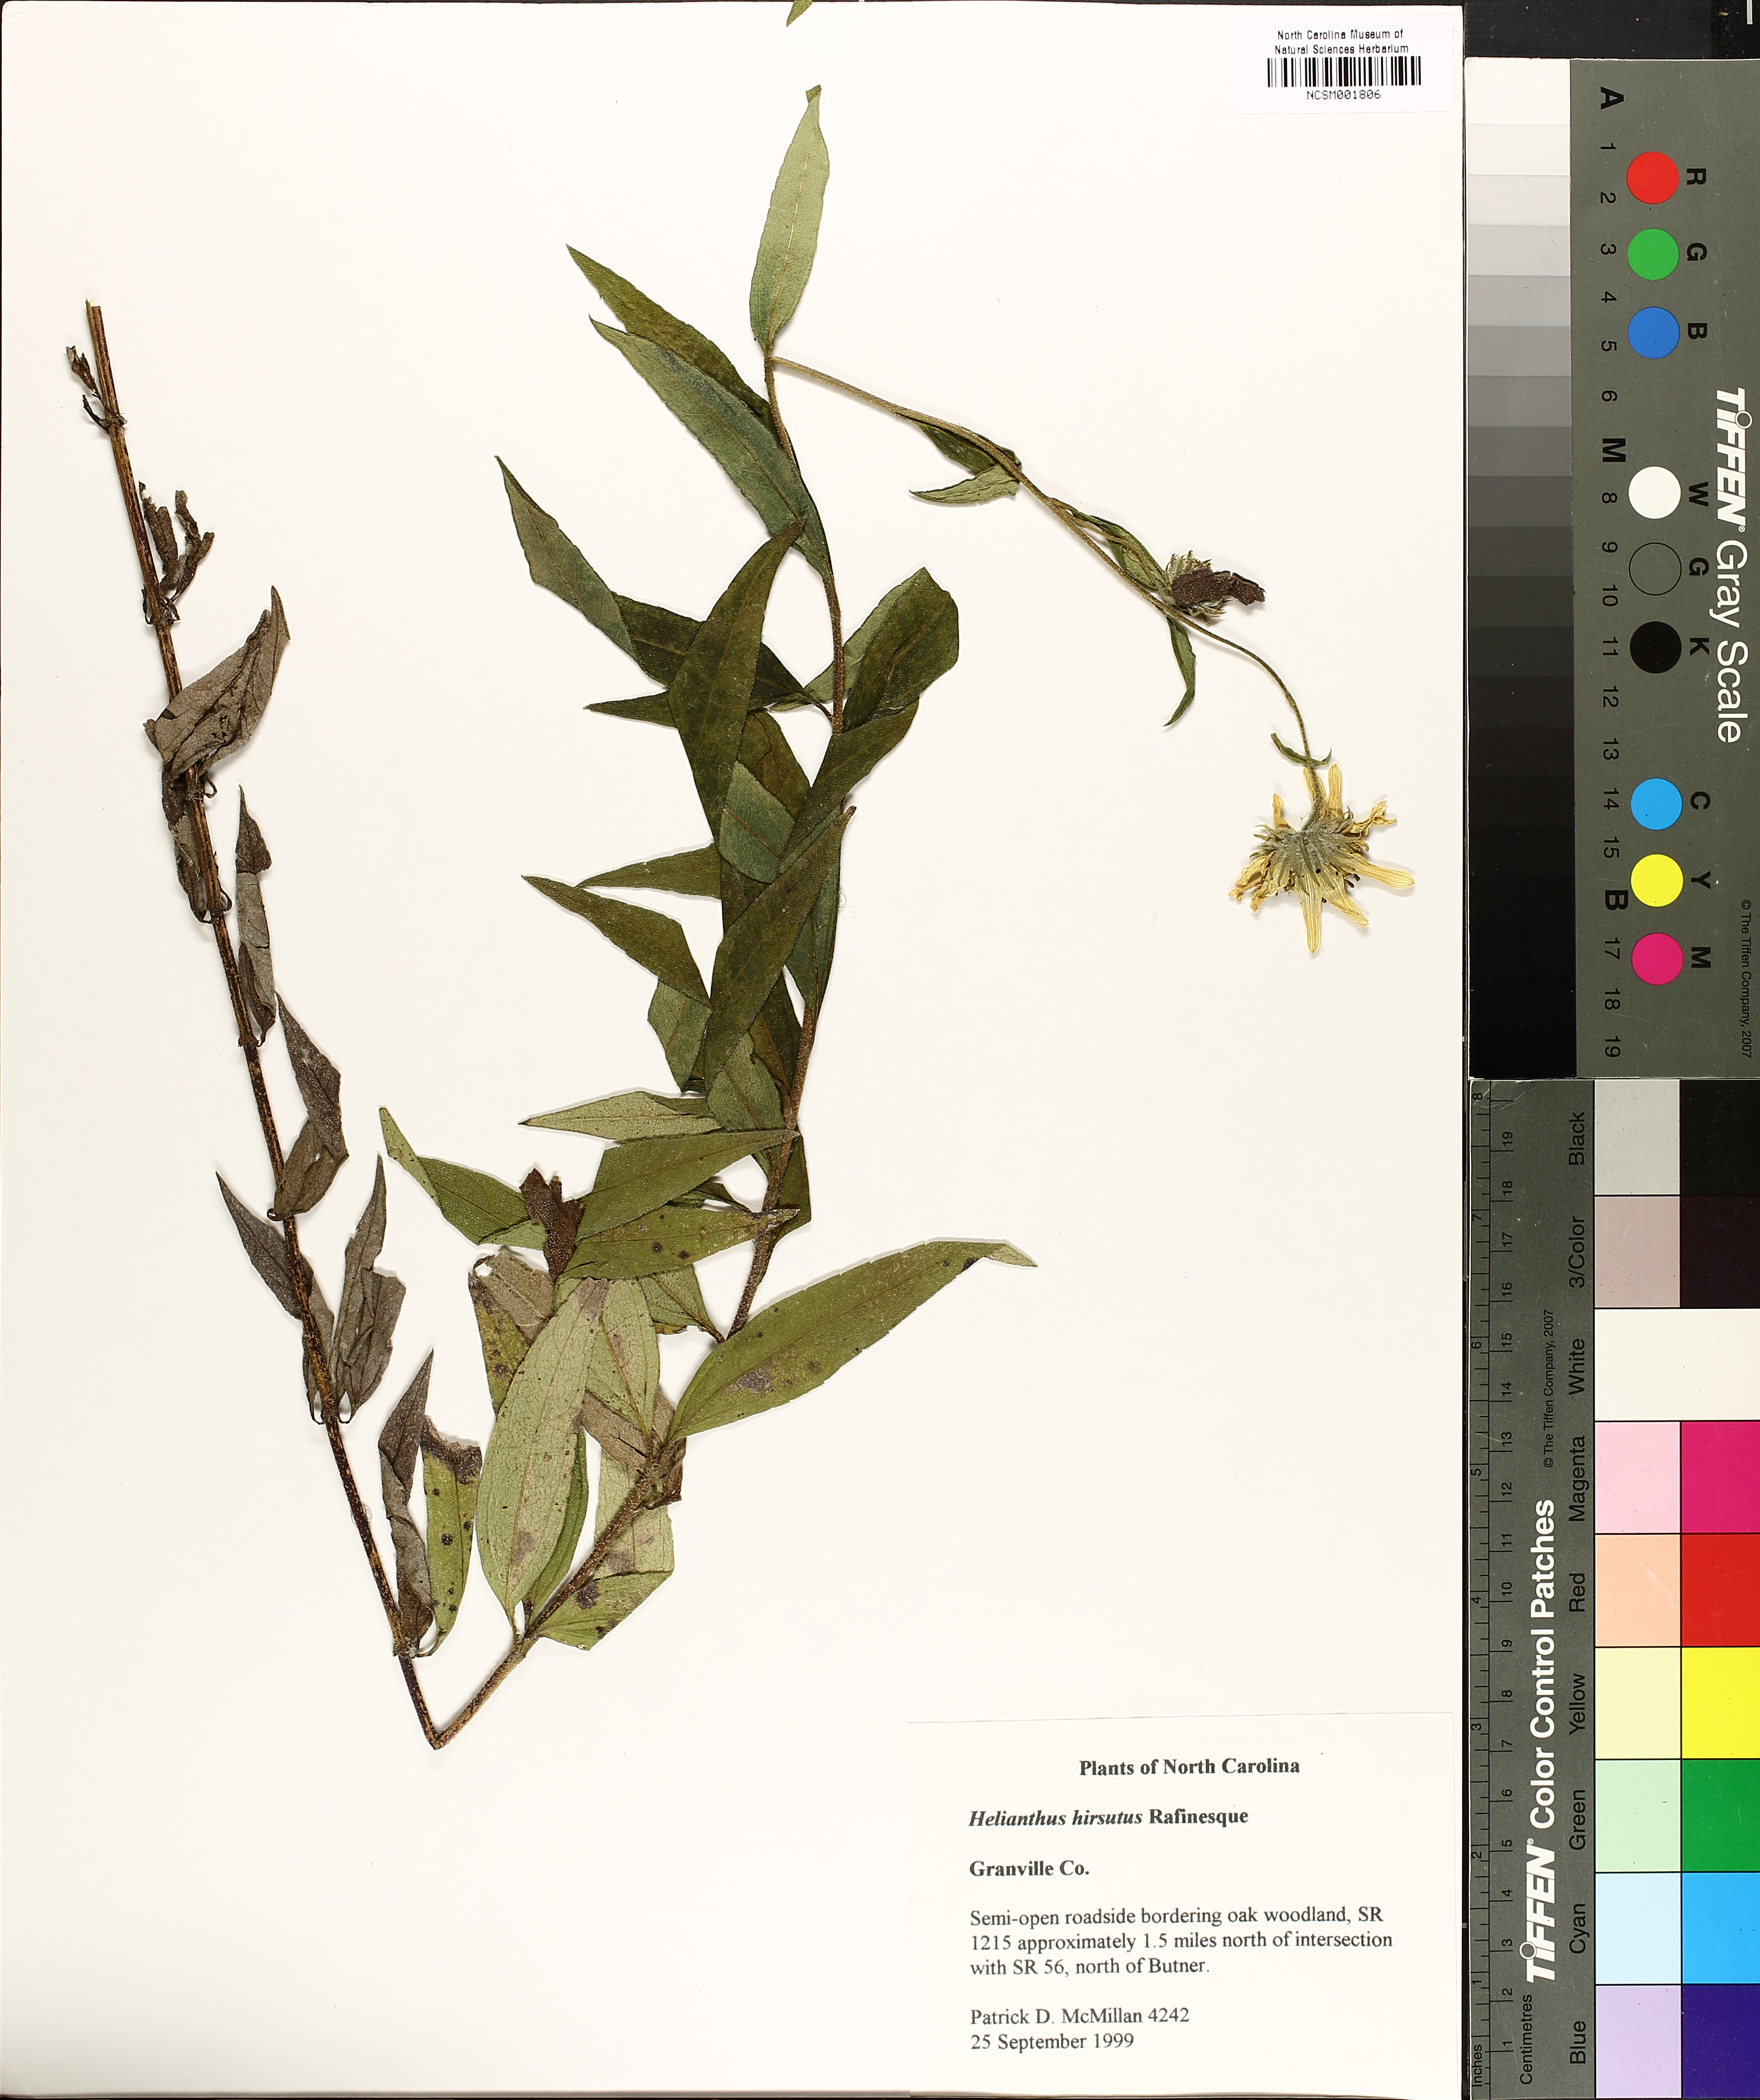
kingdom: Plantae
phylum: Tracheophyta
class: Magnoliopsida
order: Asterales
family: Asteraceae
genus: Helianthus
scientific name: Helianthus hirsutus
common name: Hairy sunflower
